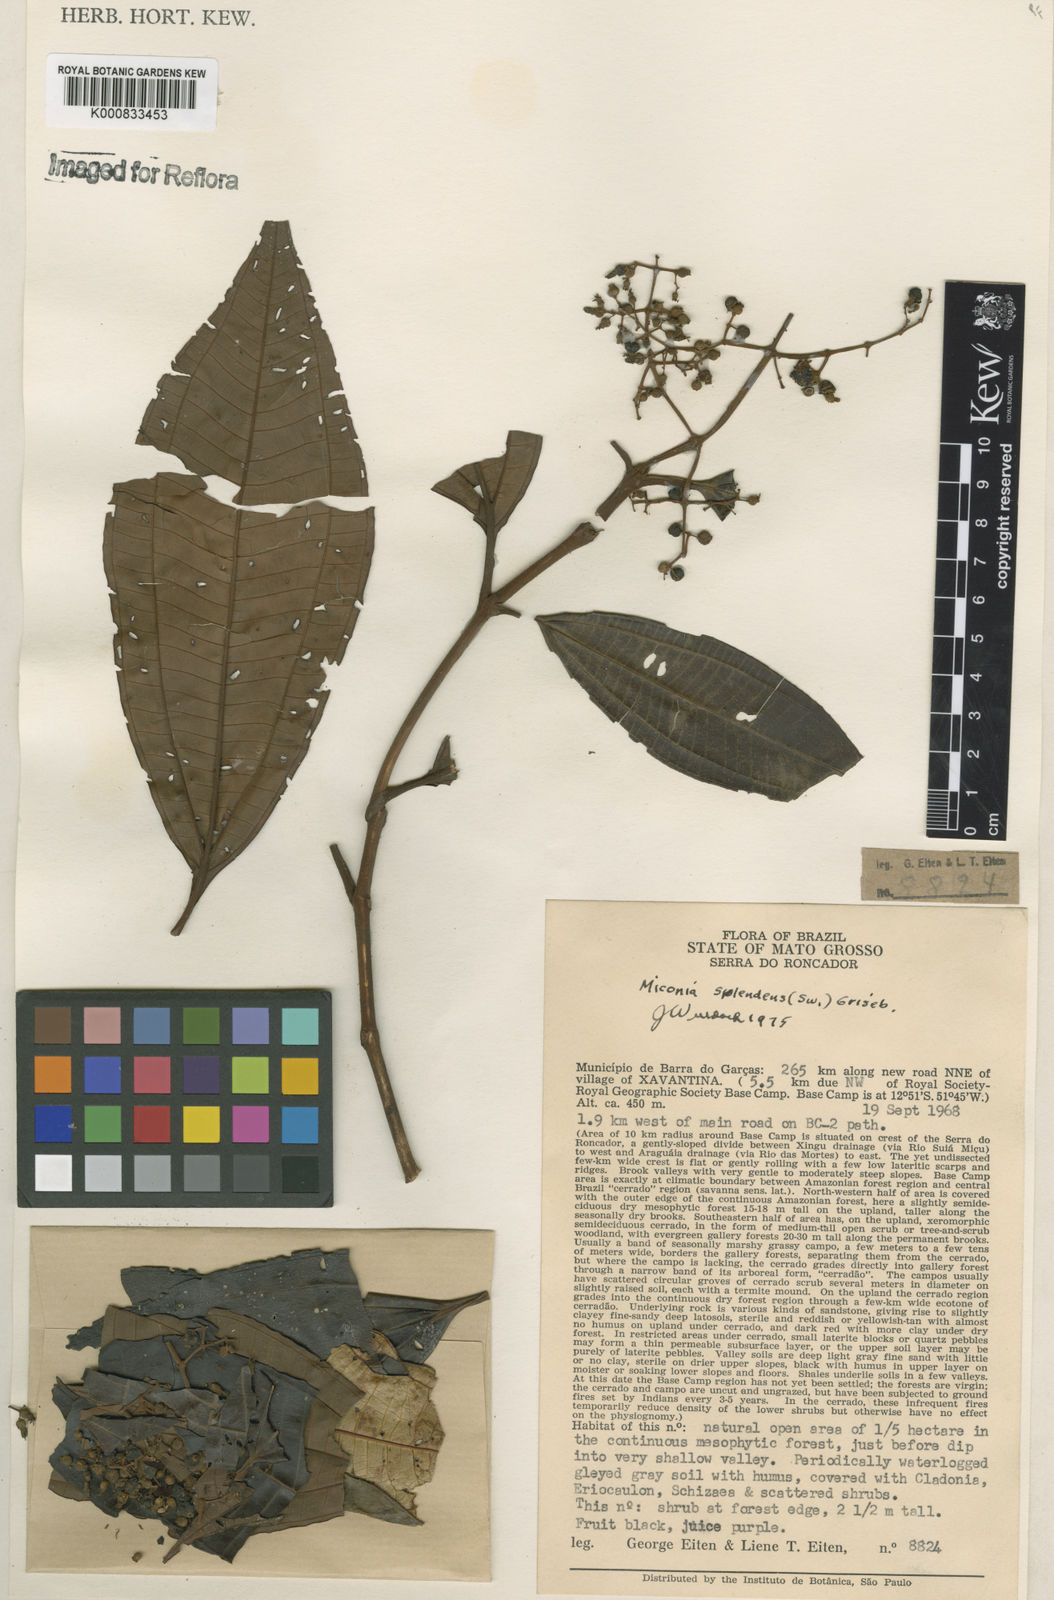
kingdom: Plantae
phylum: Tracheophyta
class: Magnoliopsida
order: Myrtales
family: Melastomataceae
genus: Miconia
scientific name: Miconia splendens
